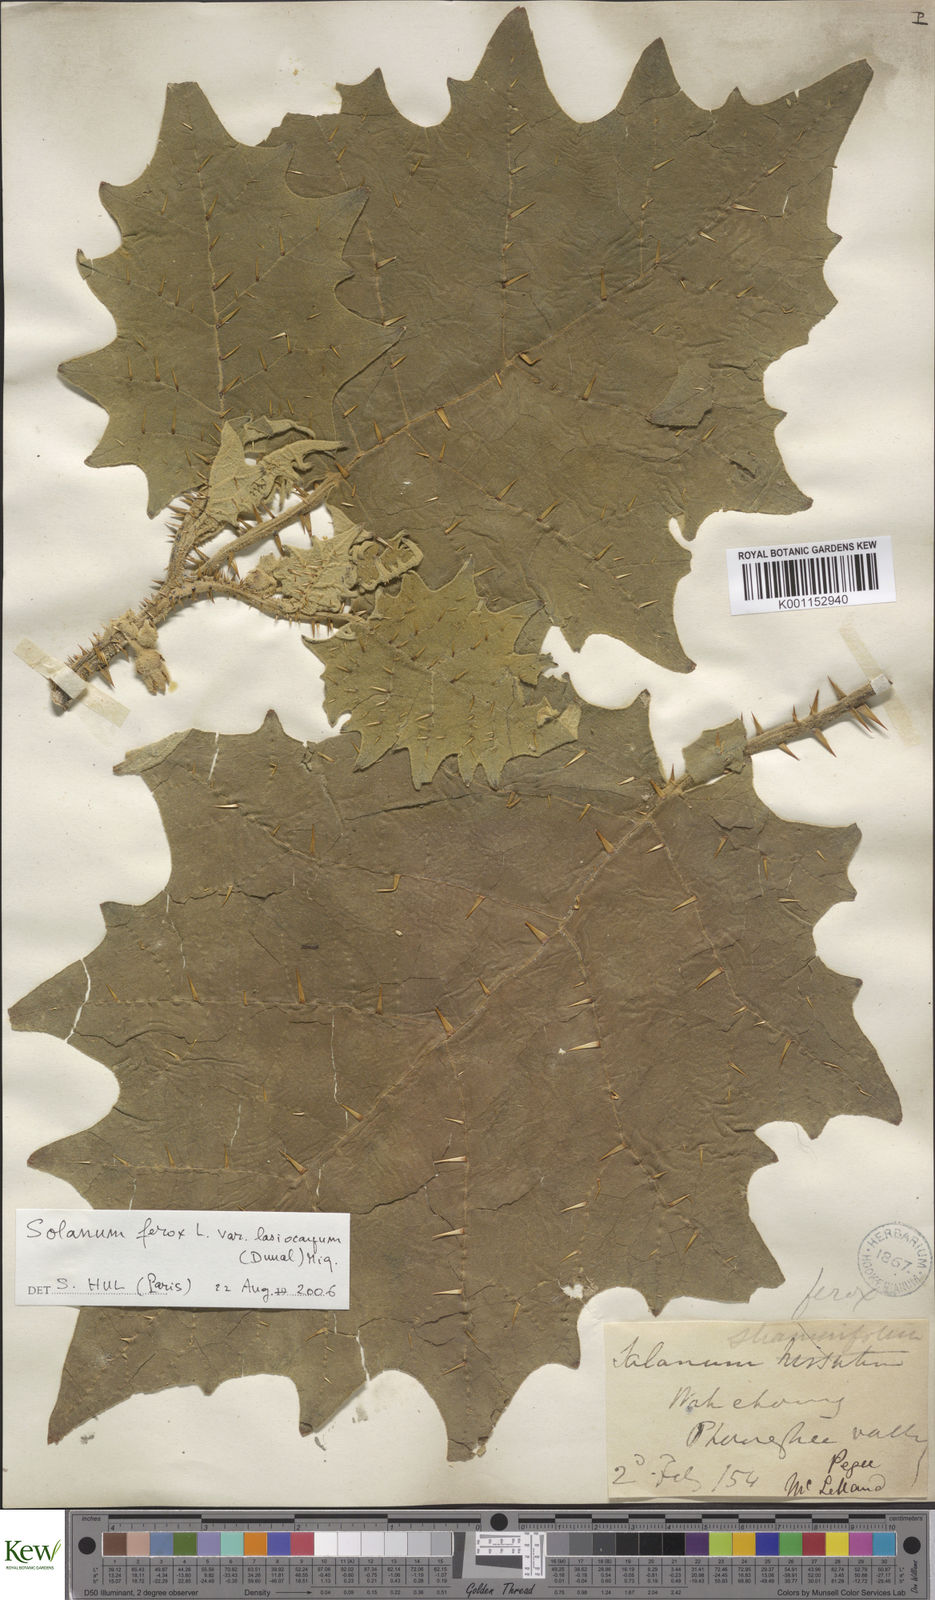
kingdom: Plantae
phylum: Tracheophyta
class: Magnoliopsida
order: Solanales
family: Solanaceae
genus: Solanum
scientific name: Solanum
